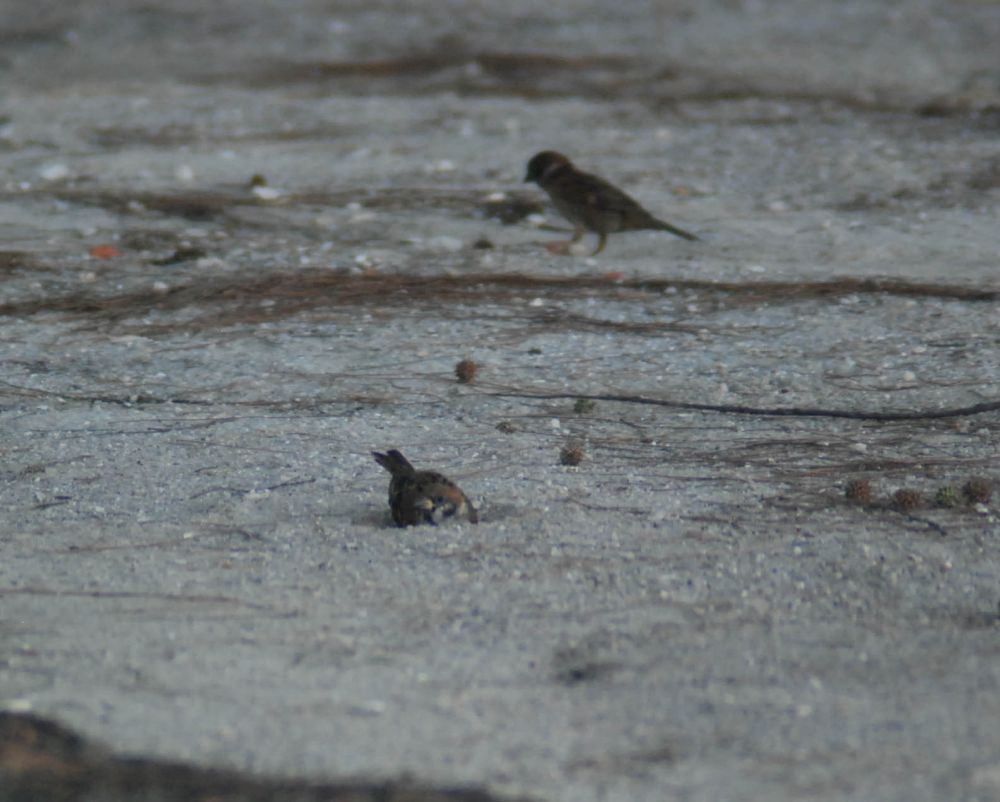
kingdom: Animalia
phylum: Chordata
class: Aves
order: Passeriformes
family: Passeridae
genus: Passer
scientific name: Passer montanus
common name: Eurasian tree sparrow
